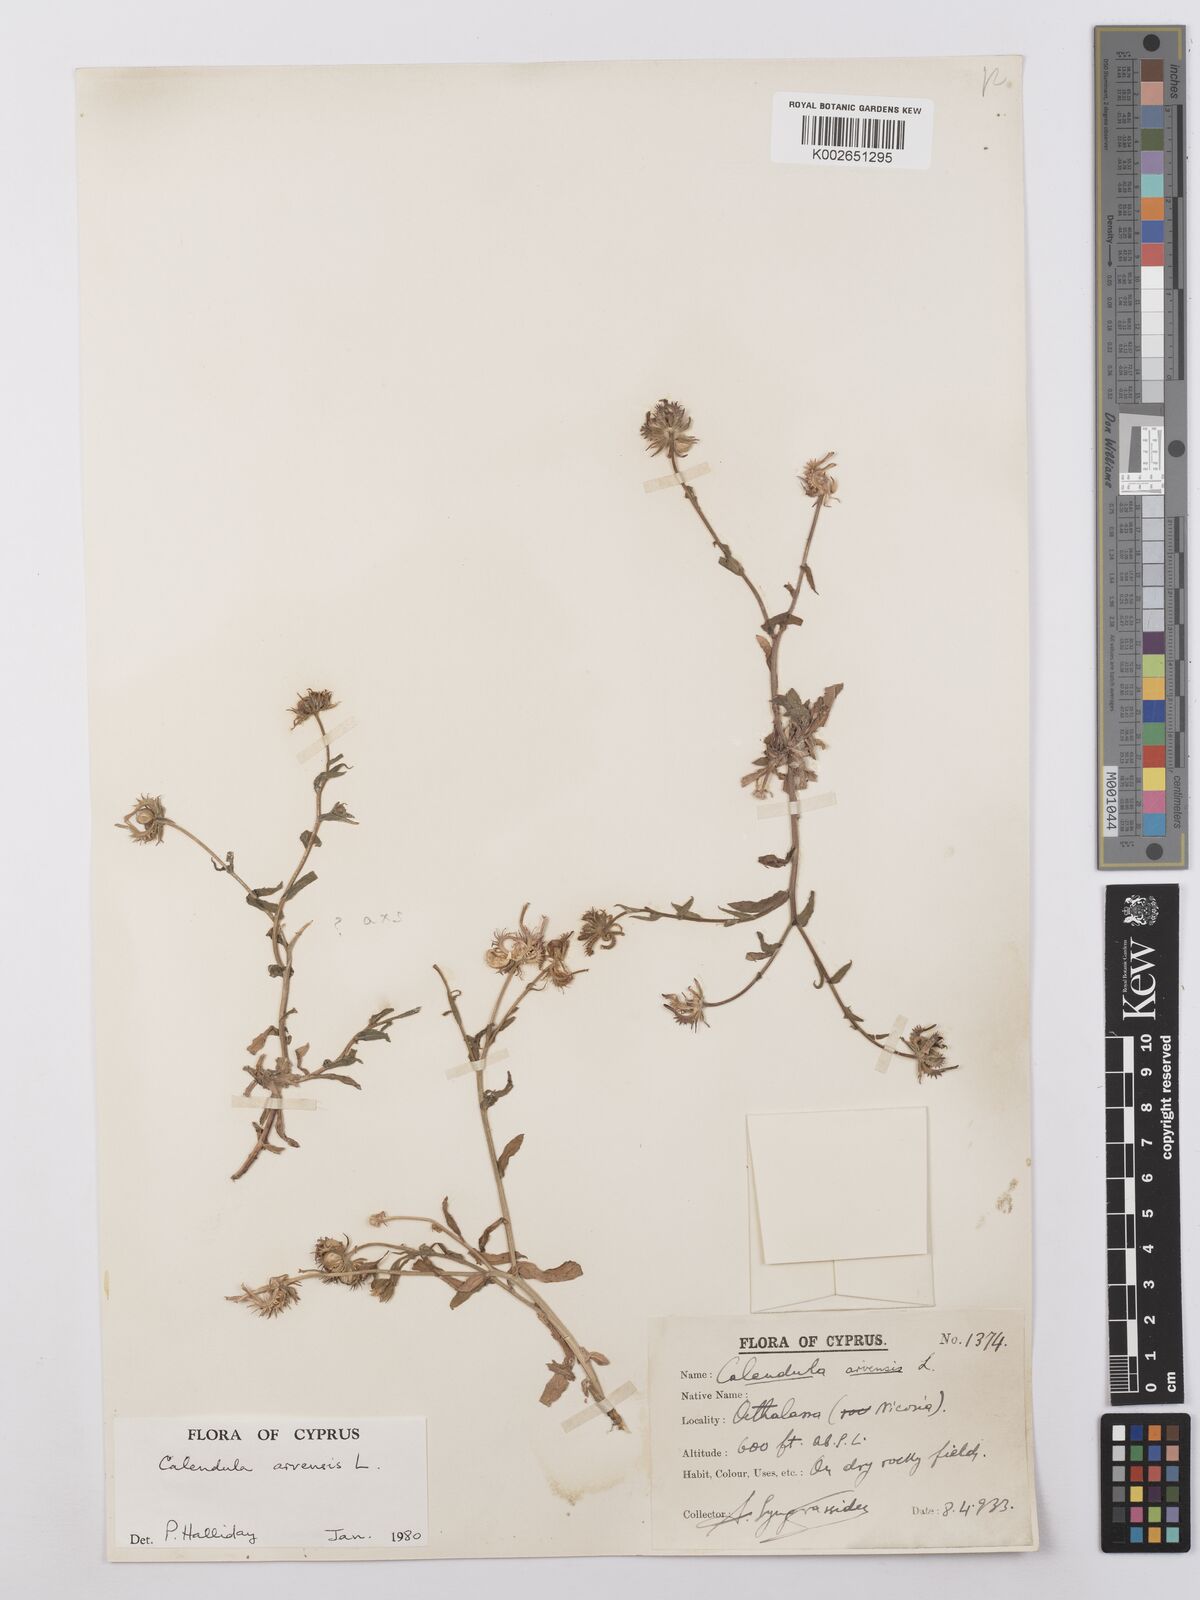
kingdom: Plantae
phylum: Tracheophyta
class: Magnoliopsida
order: Asterales
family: Asteraceae
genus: Calendula
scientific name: Calendula arvensis
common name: Field marigold
